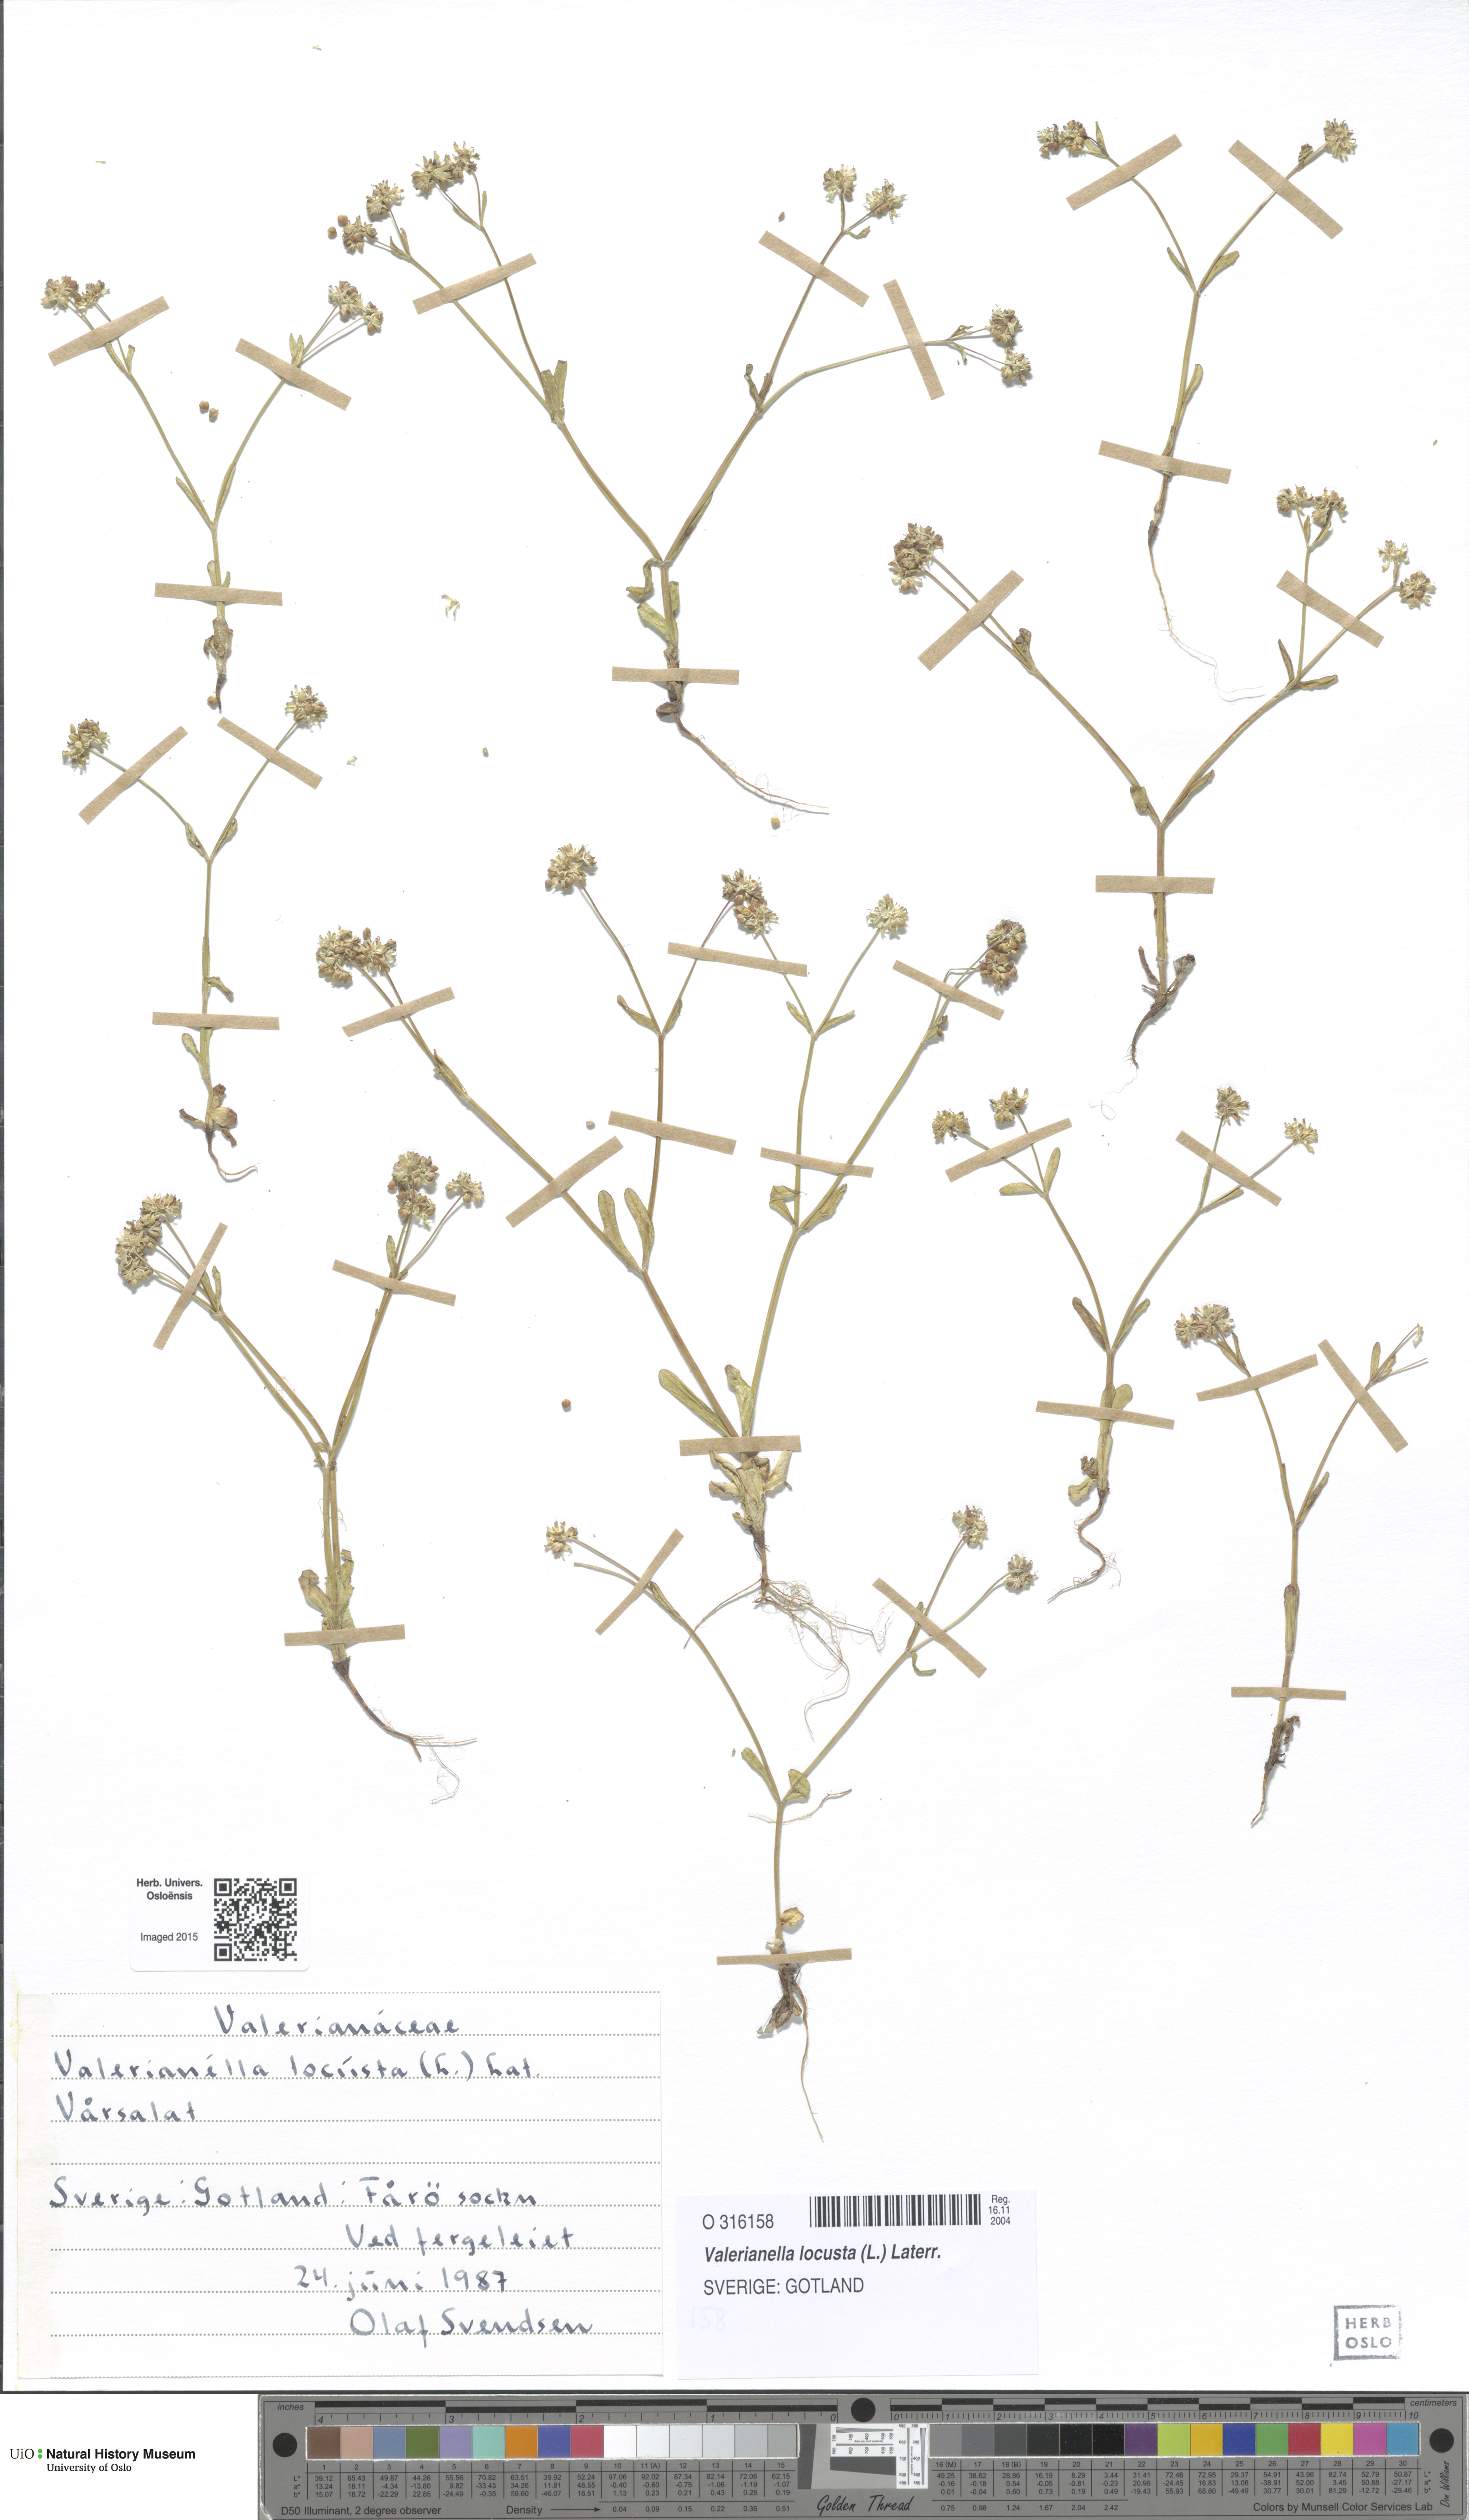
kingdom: Plantae
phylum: Tracheophyta
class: Magnoliopsida
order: Dipsacales
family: Caprifoliaceae
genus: Valerianella
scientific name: Valerianella locusta
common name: Common cornsalad
